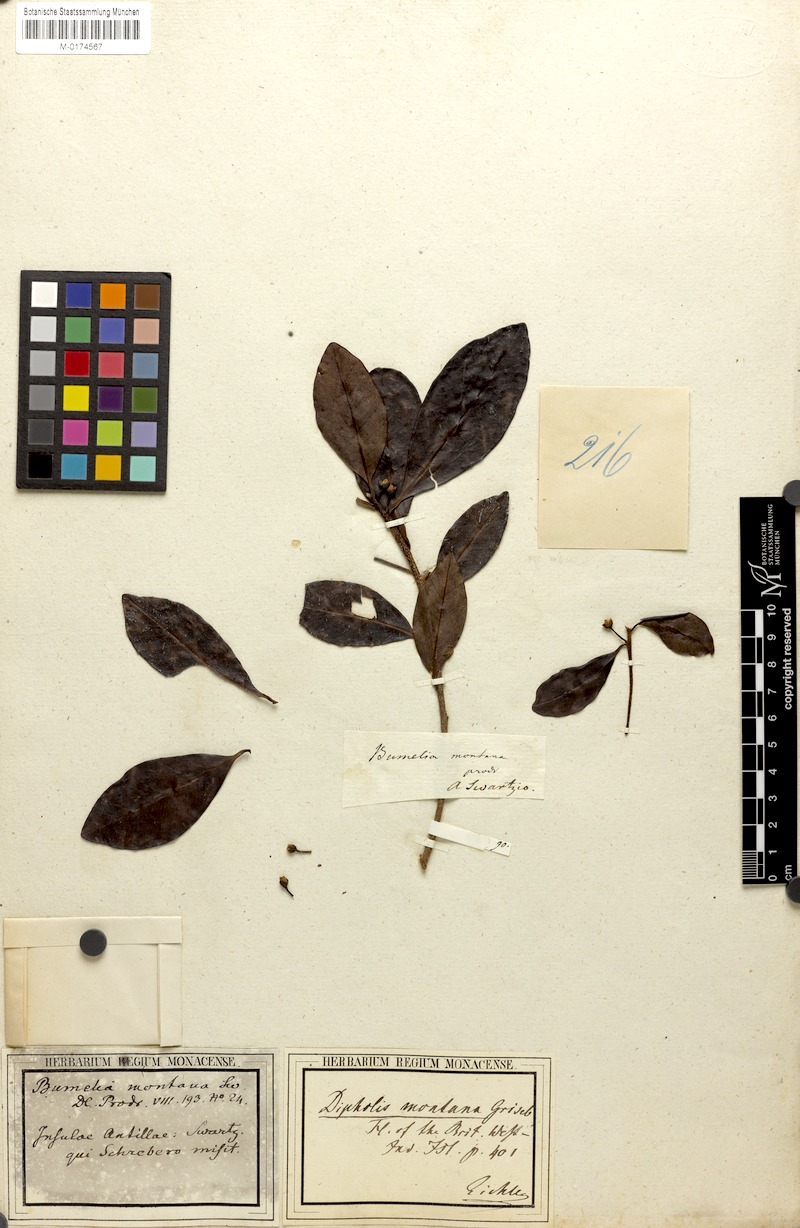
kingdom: Plantae
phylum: Tracheophyta
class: Magnoliopsida
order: Ericales
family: Sapotaceae
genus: Sideroxylon
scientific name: Sideroxylon montanum
